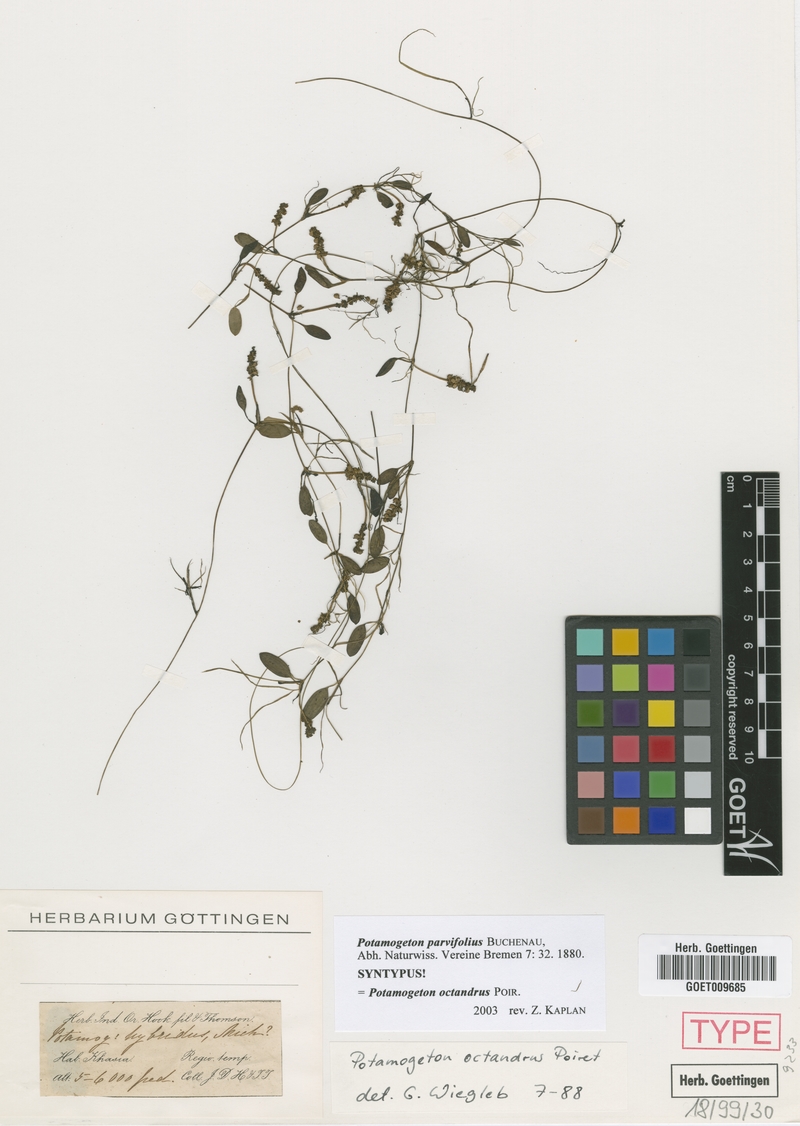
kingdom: Plantae
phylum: Tracheophyta
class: Liliopsida
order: Alismatales
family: Potamogetonaceae
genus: Potamogeton
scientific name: Potamogeton octandrus
